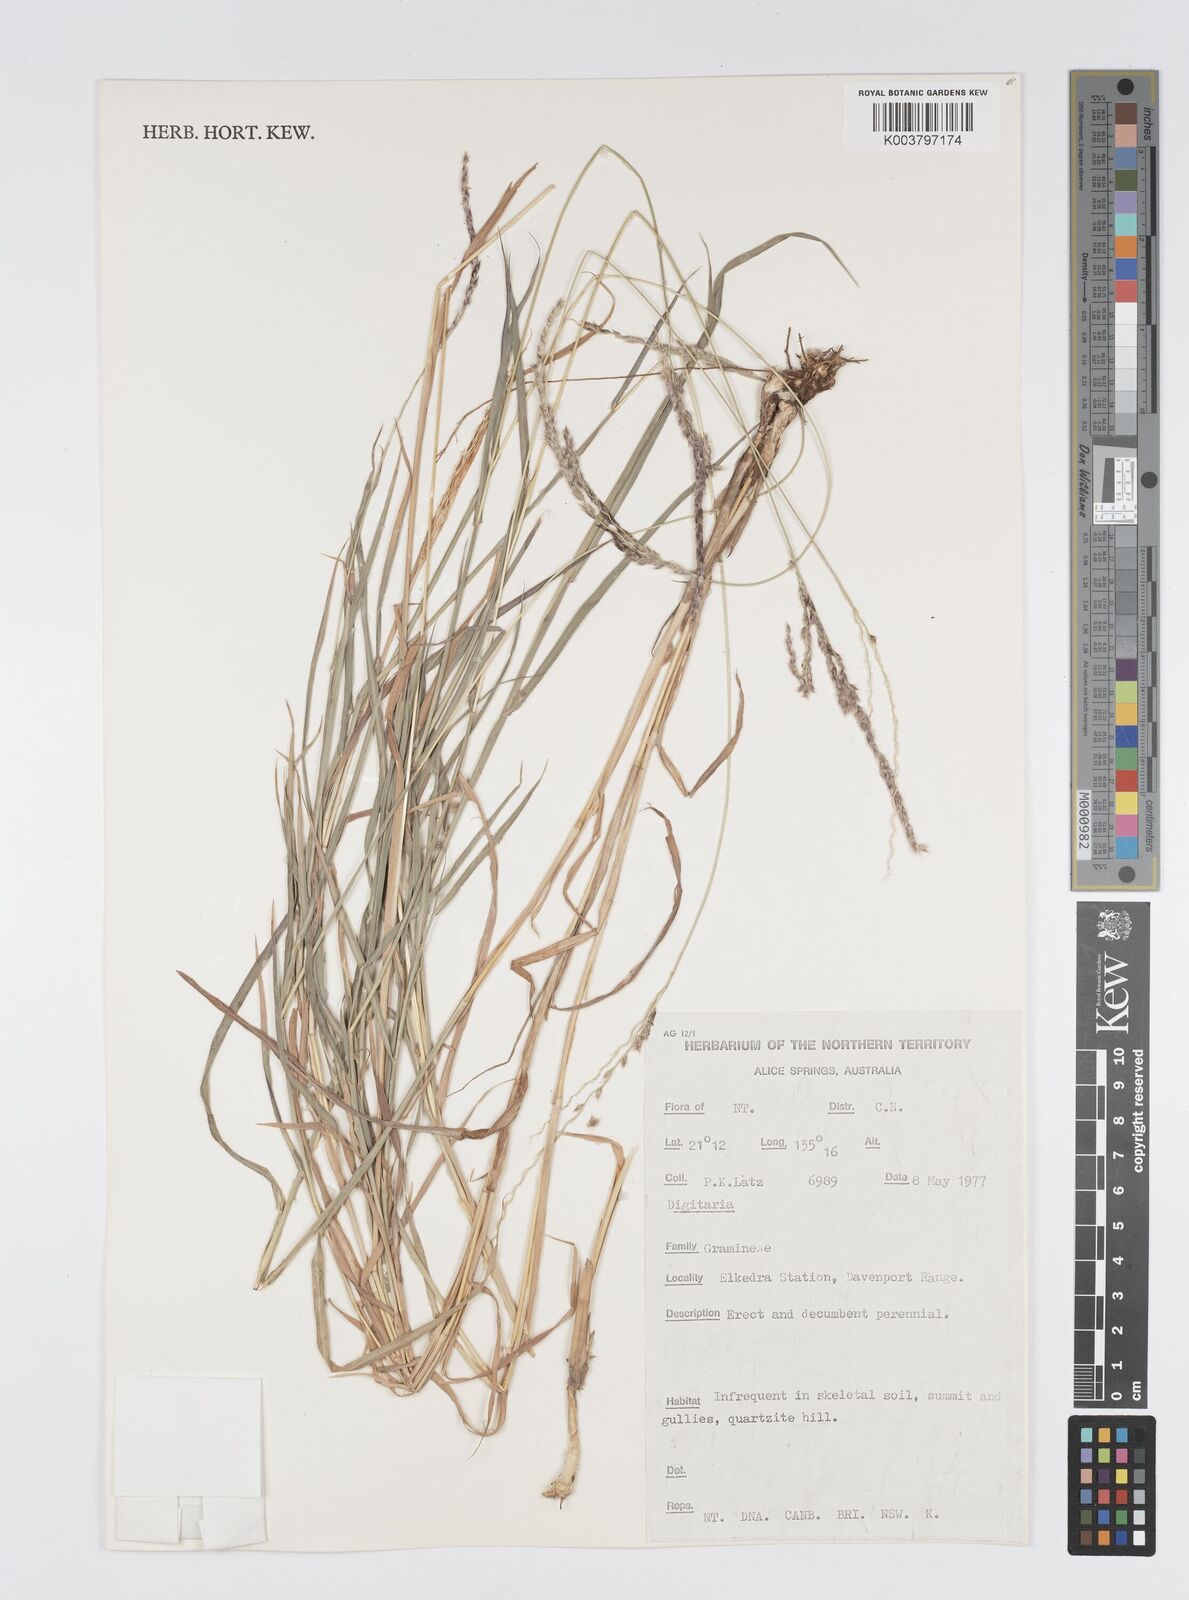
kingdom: Plantae
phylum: Tracheophyta
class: Liliopsida
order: Poales
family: Poaceae
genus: Digitaria
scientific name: Digitaria spec
